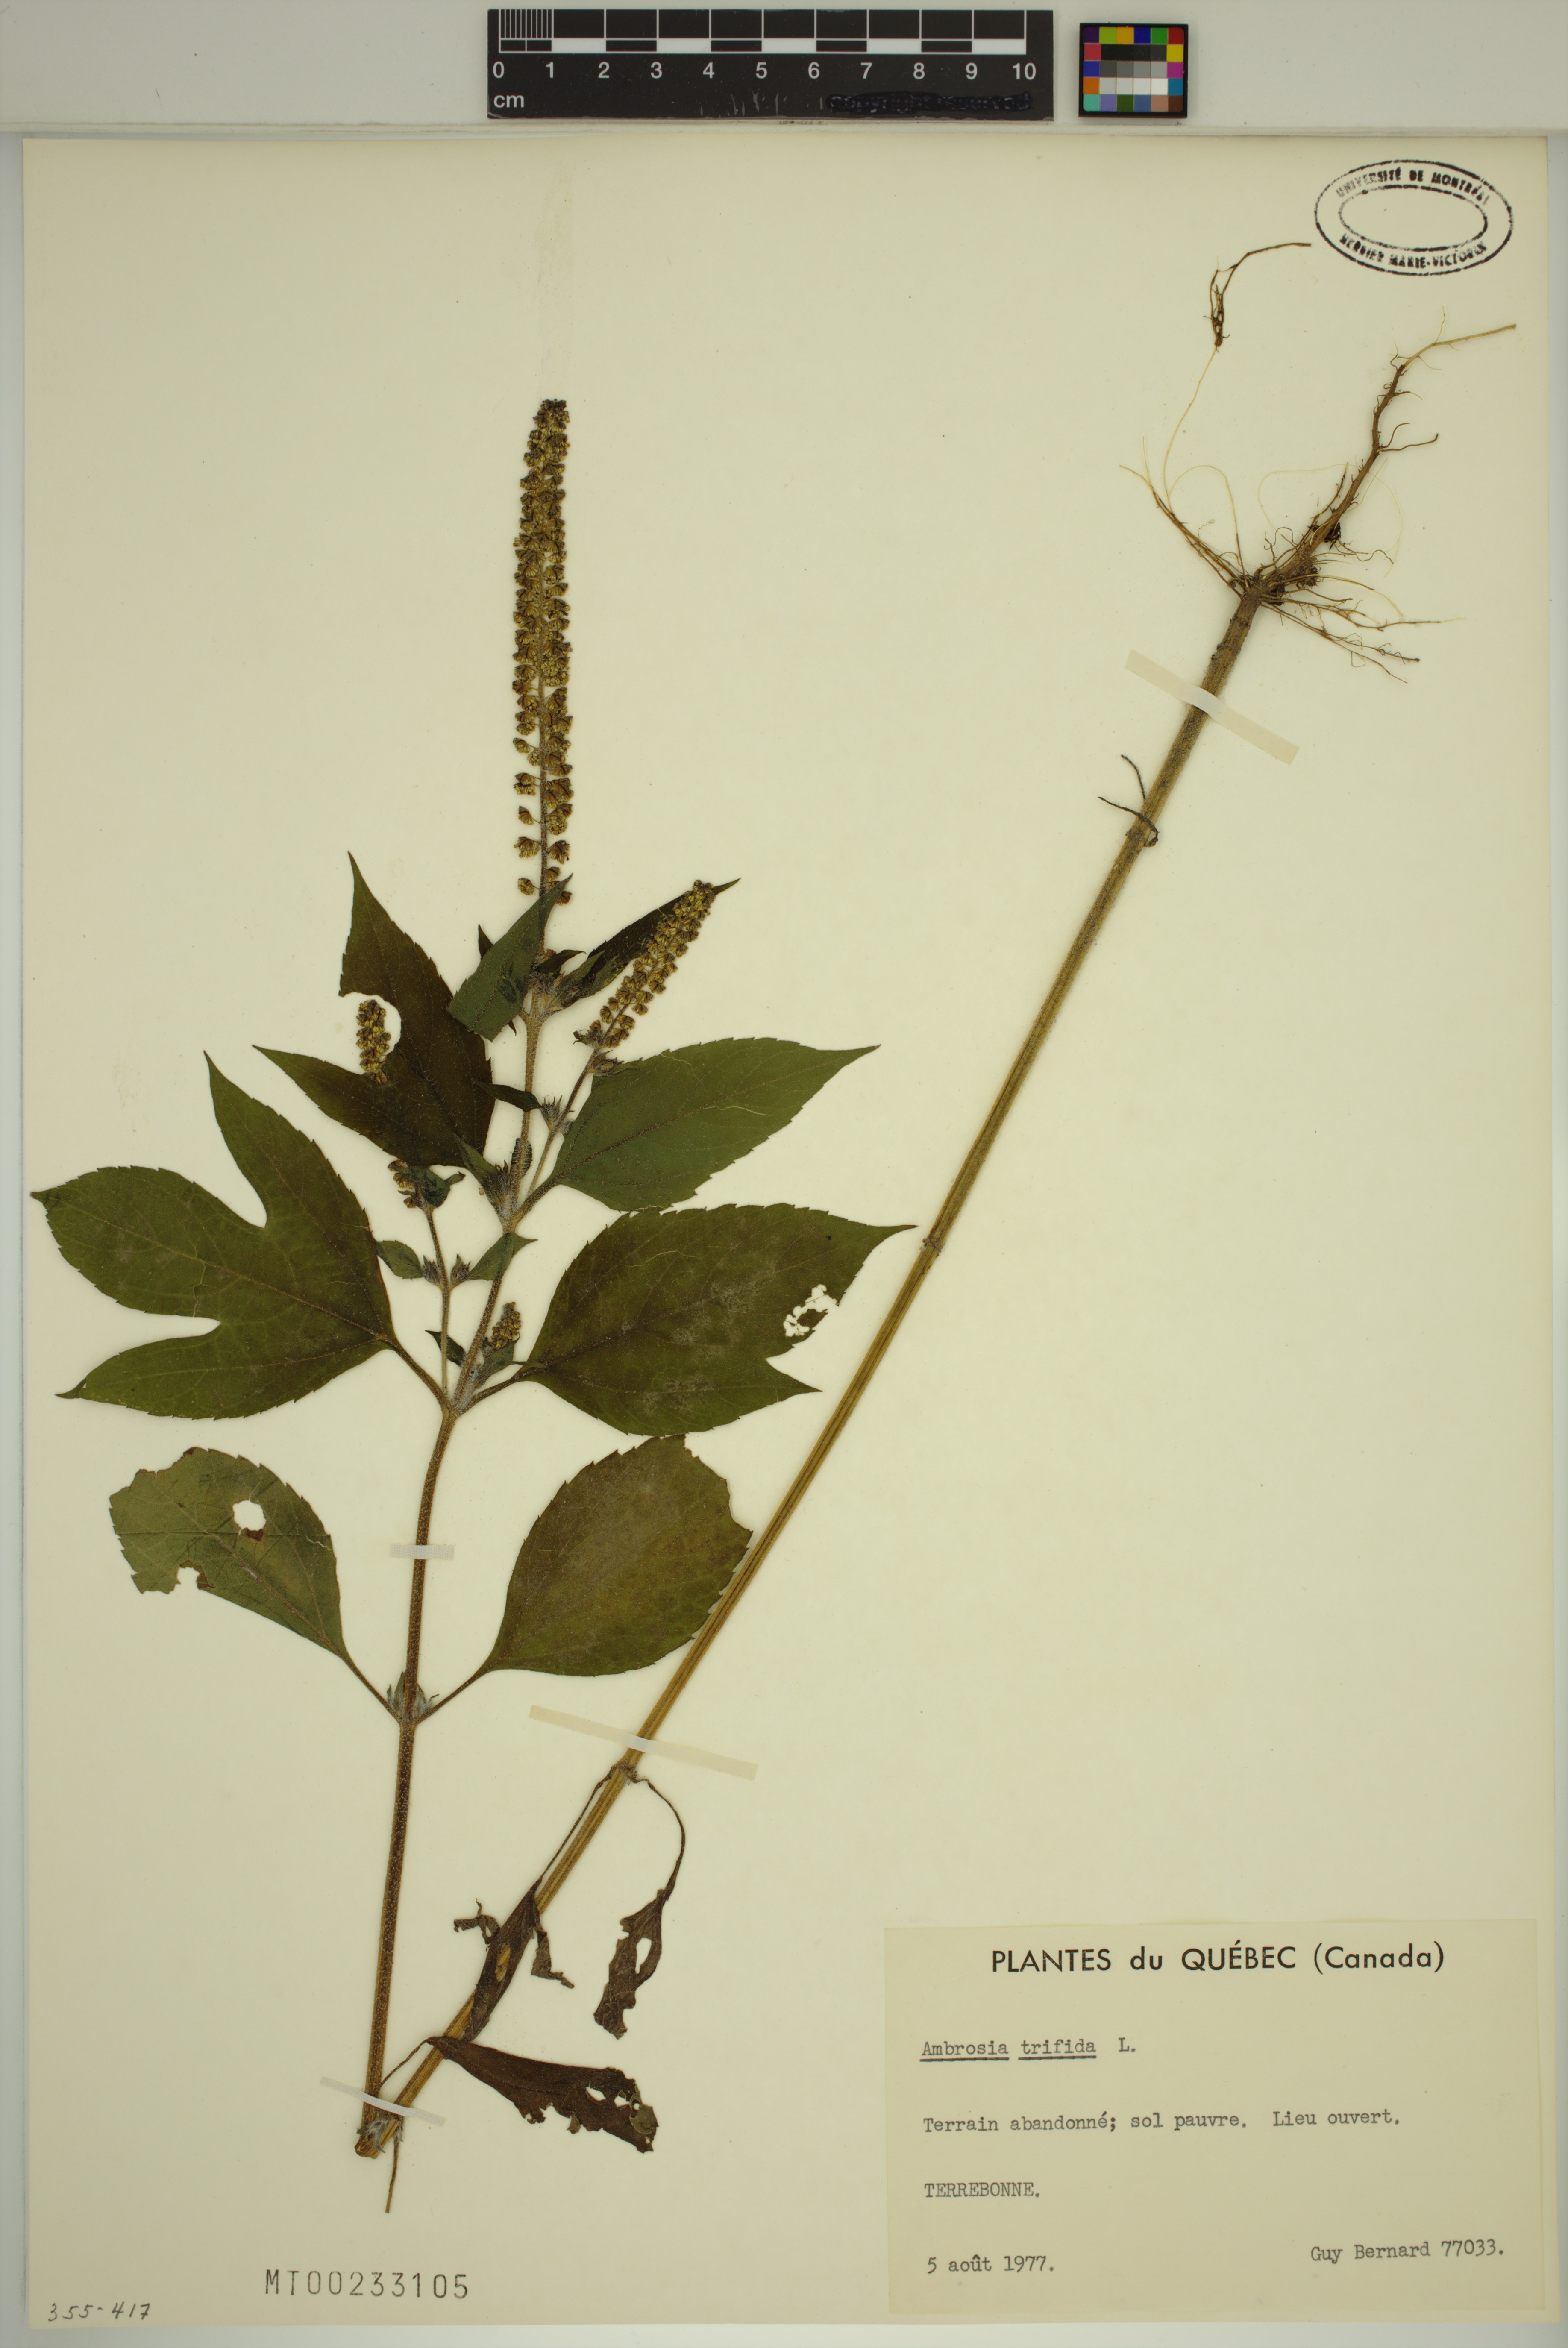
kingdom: Plantae
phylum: Tracheophyta
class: Magnoliopsida
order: Asterales
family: Asteraceae
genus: Ambrosia
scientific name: Ambrosia trifida
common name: Giant ragweed
